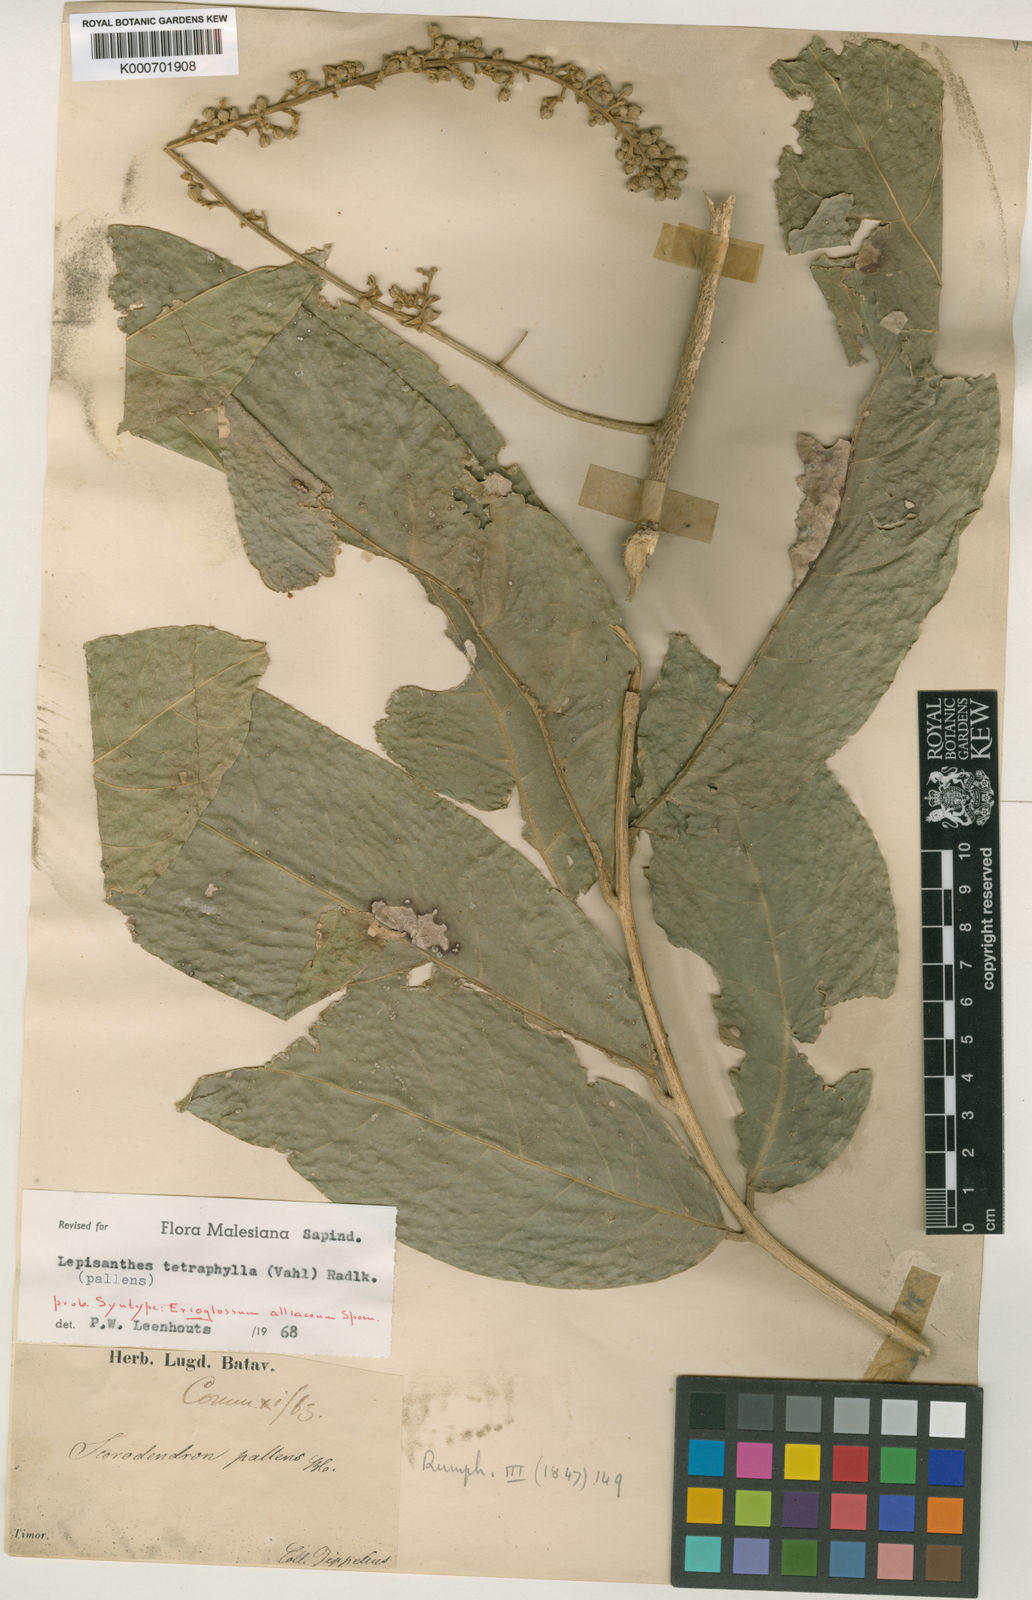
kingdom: Plantae
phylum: Tracheophyta
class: Magnoliopsida
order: Sapindales
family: Sapindaceae
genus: Lepisanthes
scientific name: Lepisanthes tetraphylla
